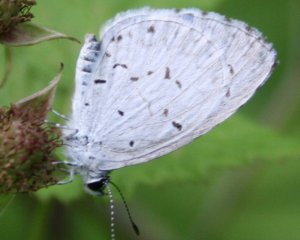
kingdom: Animalia
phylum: Arthropoda
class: Insecta
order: Lepidoptera
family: Lycaenidae
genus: Cyaniris
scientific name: Cyaniris neglecta
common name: Summer Azure
